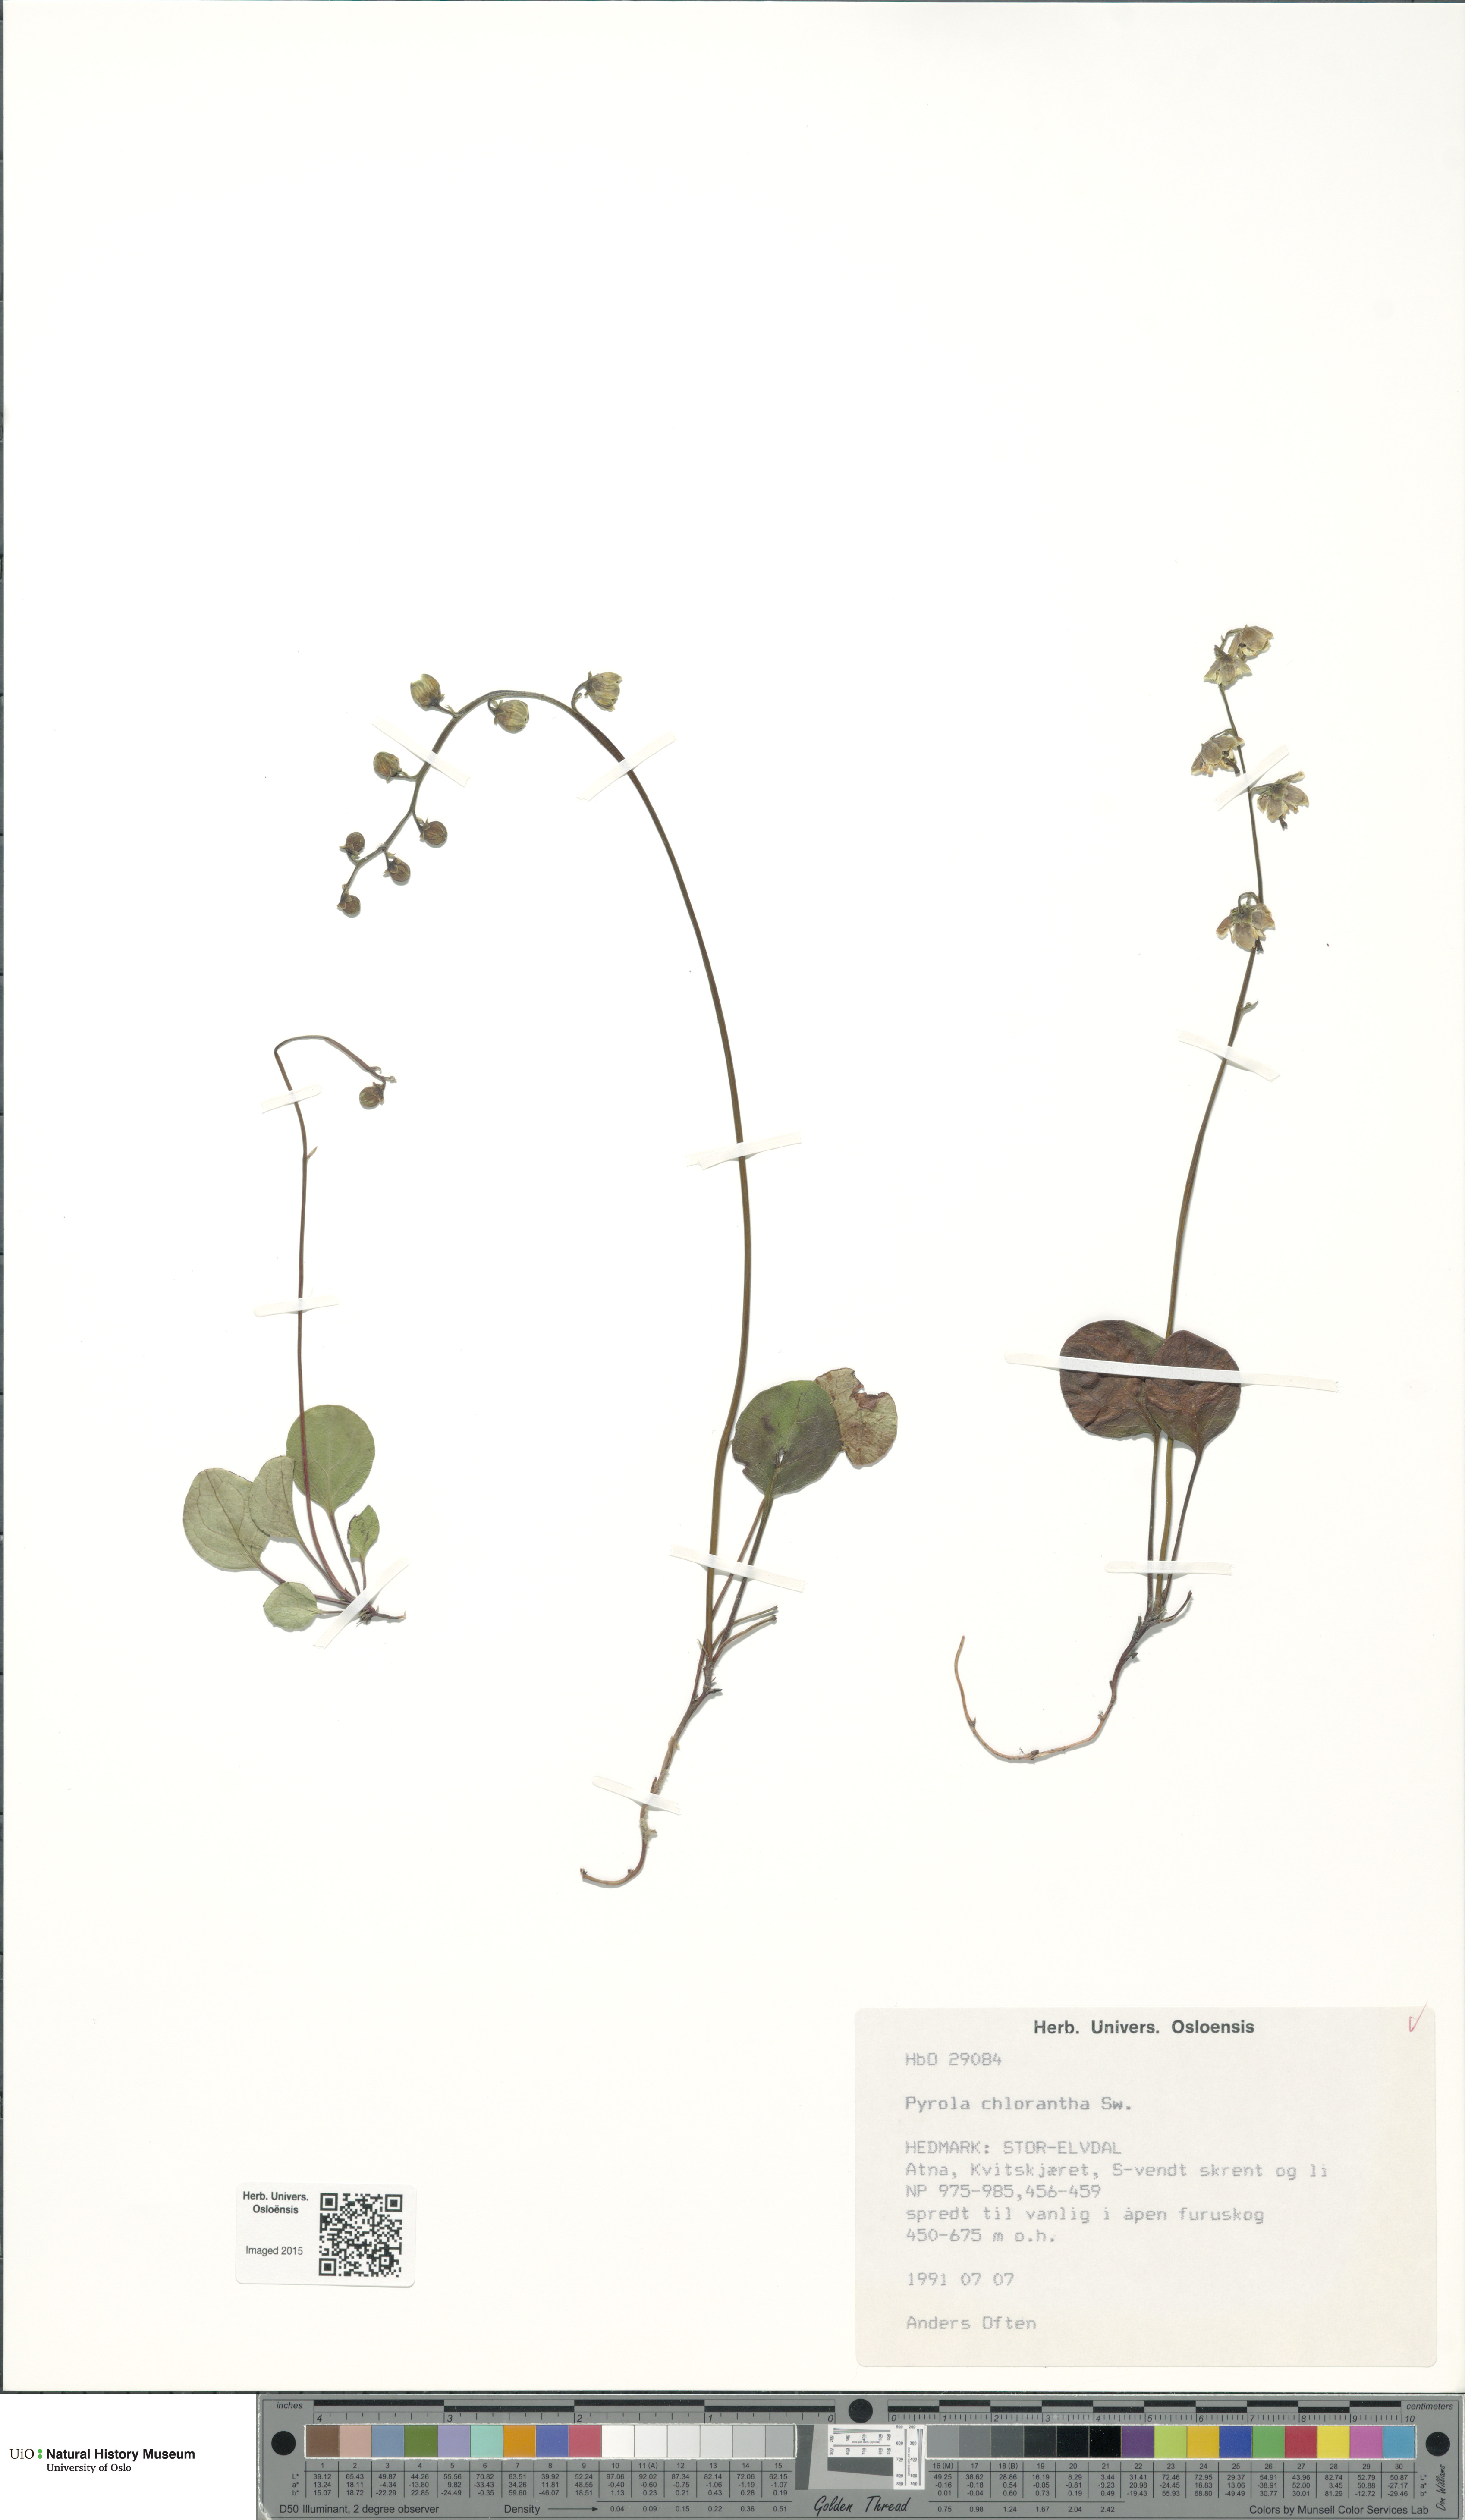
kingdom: Plantae
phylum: Tracheophyta
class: Magnoliopsida
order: Ericales
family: Ericaceae
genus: Pyrola
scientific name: Pyrola chlorantha
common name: Green wintergreen
